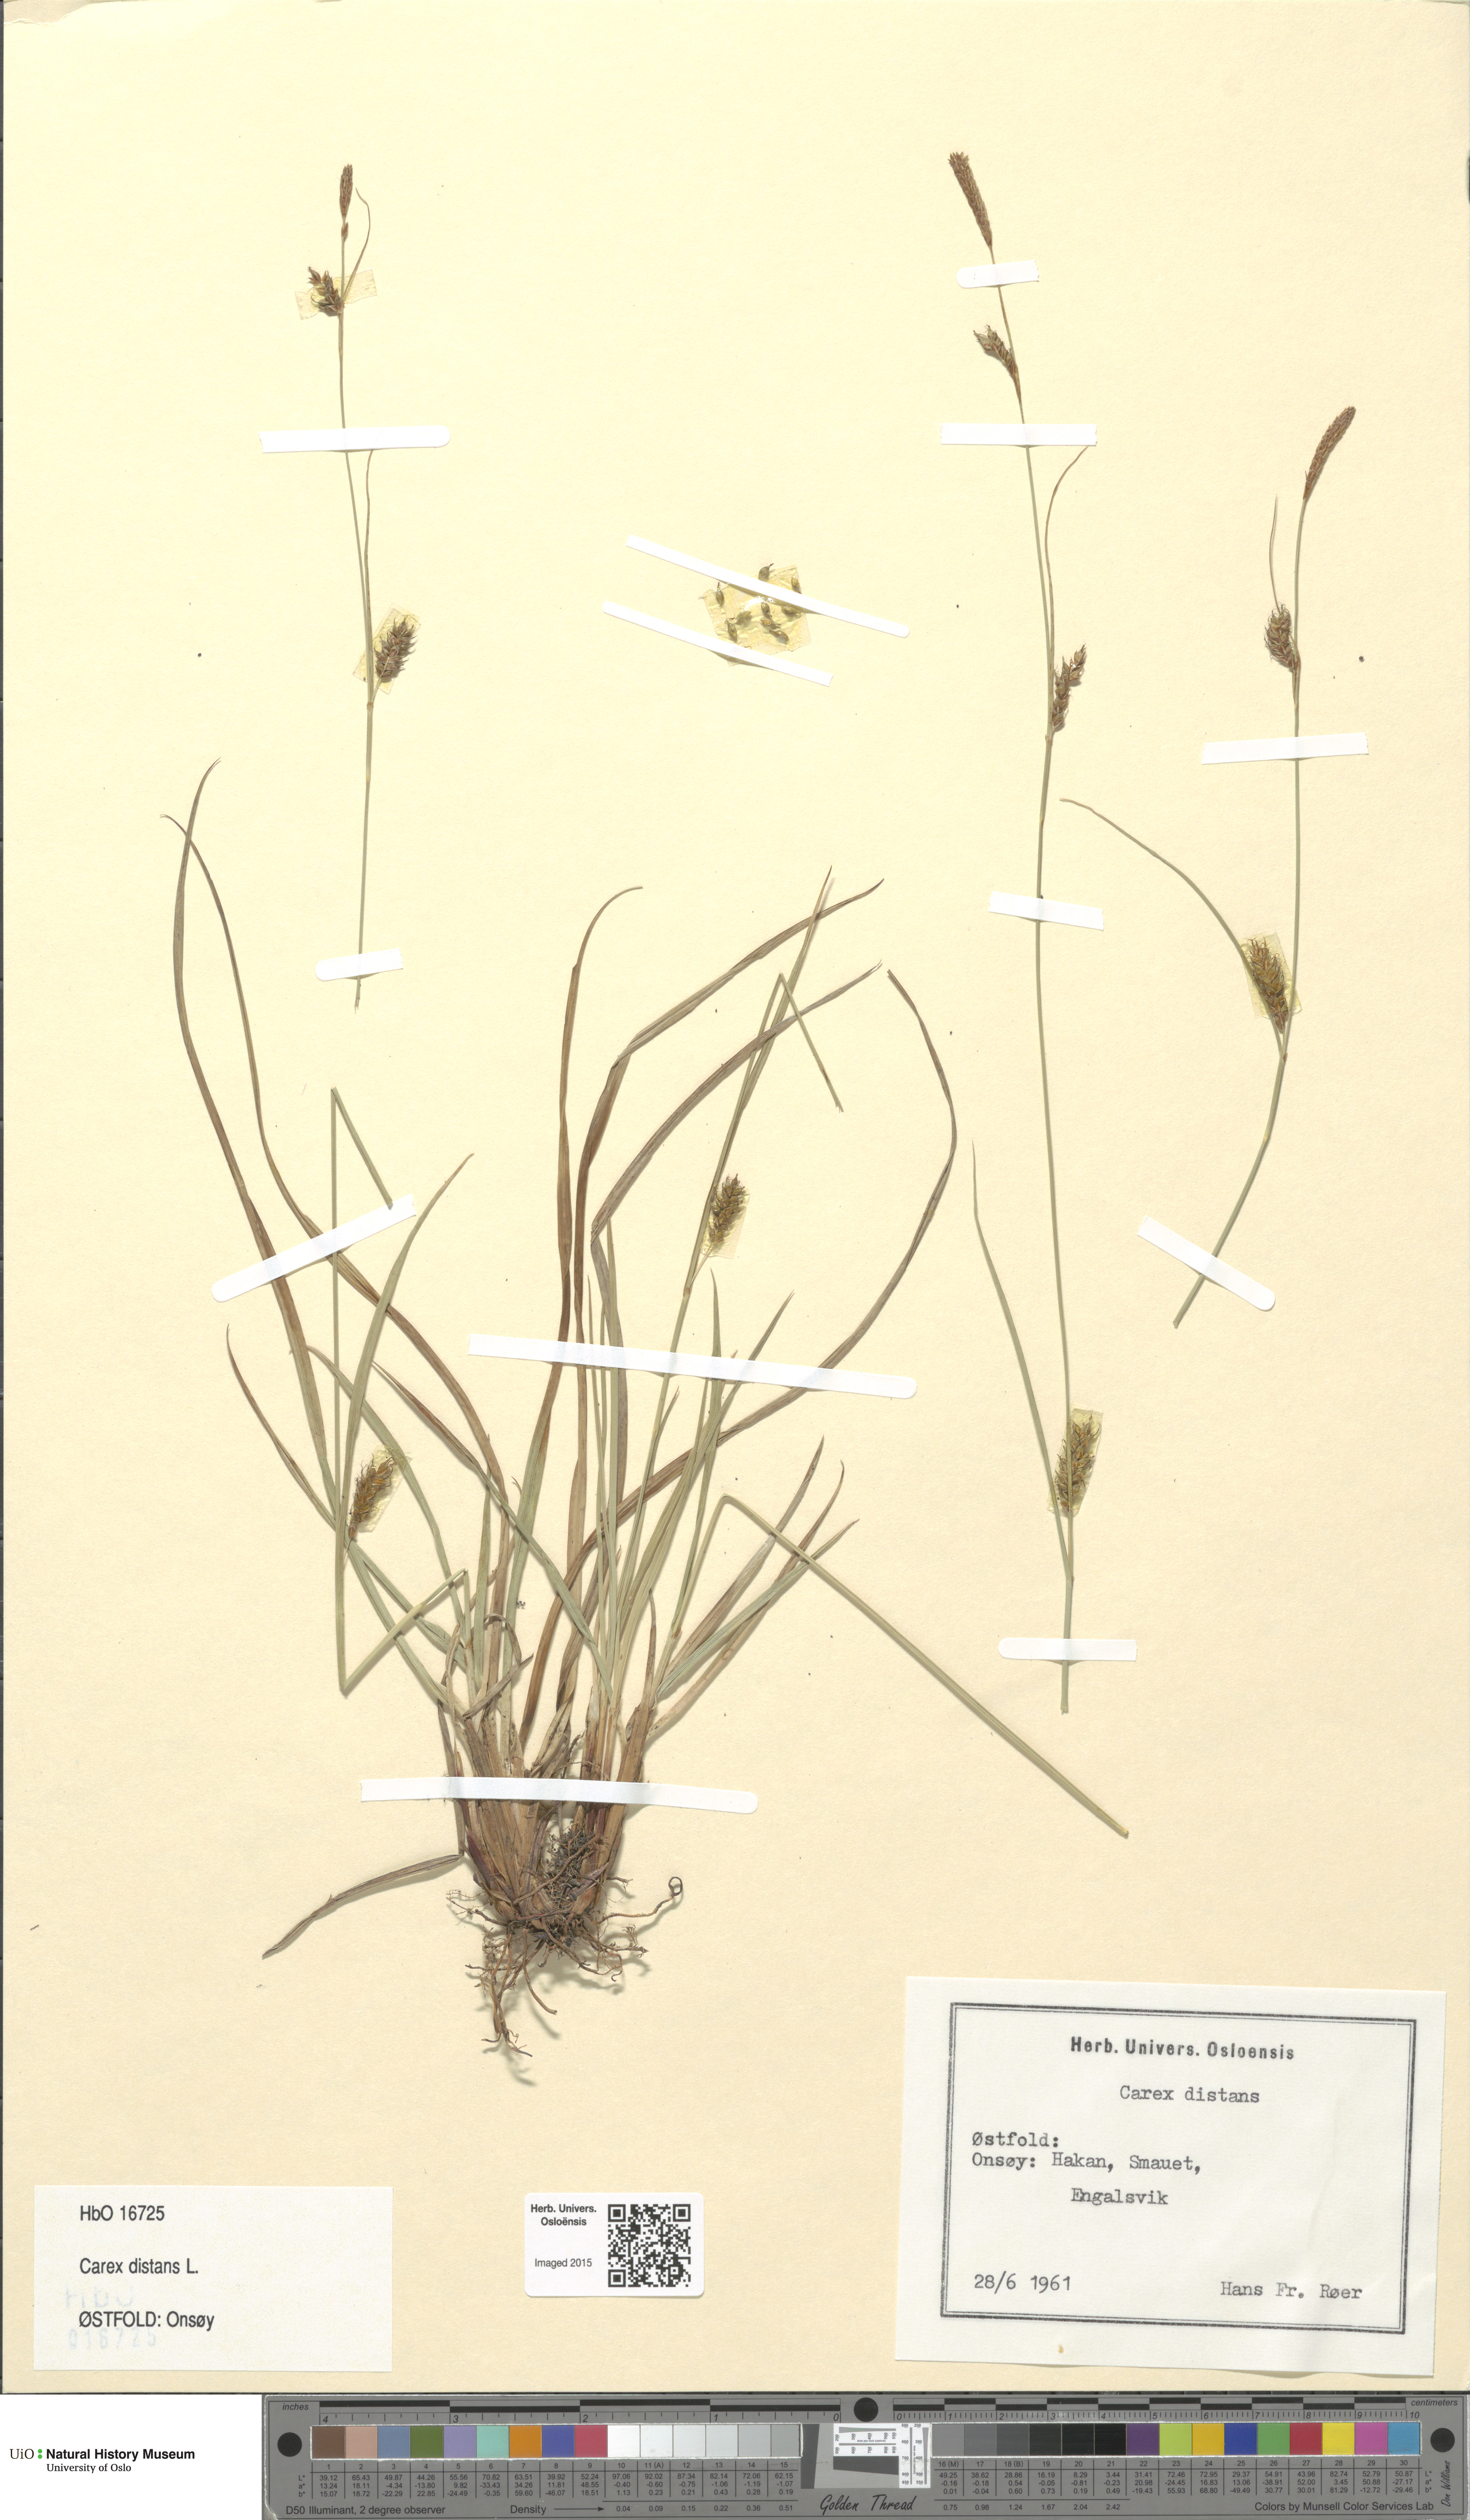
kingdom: Plantae
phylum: Tracheophyta
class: Liliopsida
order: Poales
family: Cyperaceae
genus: Carex
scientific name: Carex distans
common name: Distant sedge
